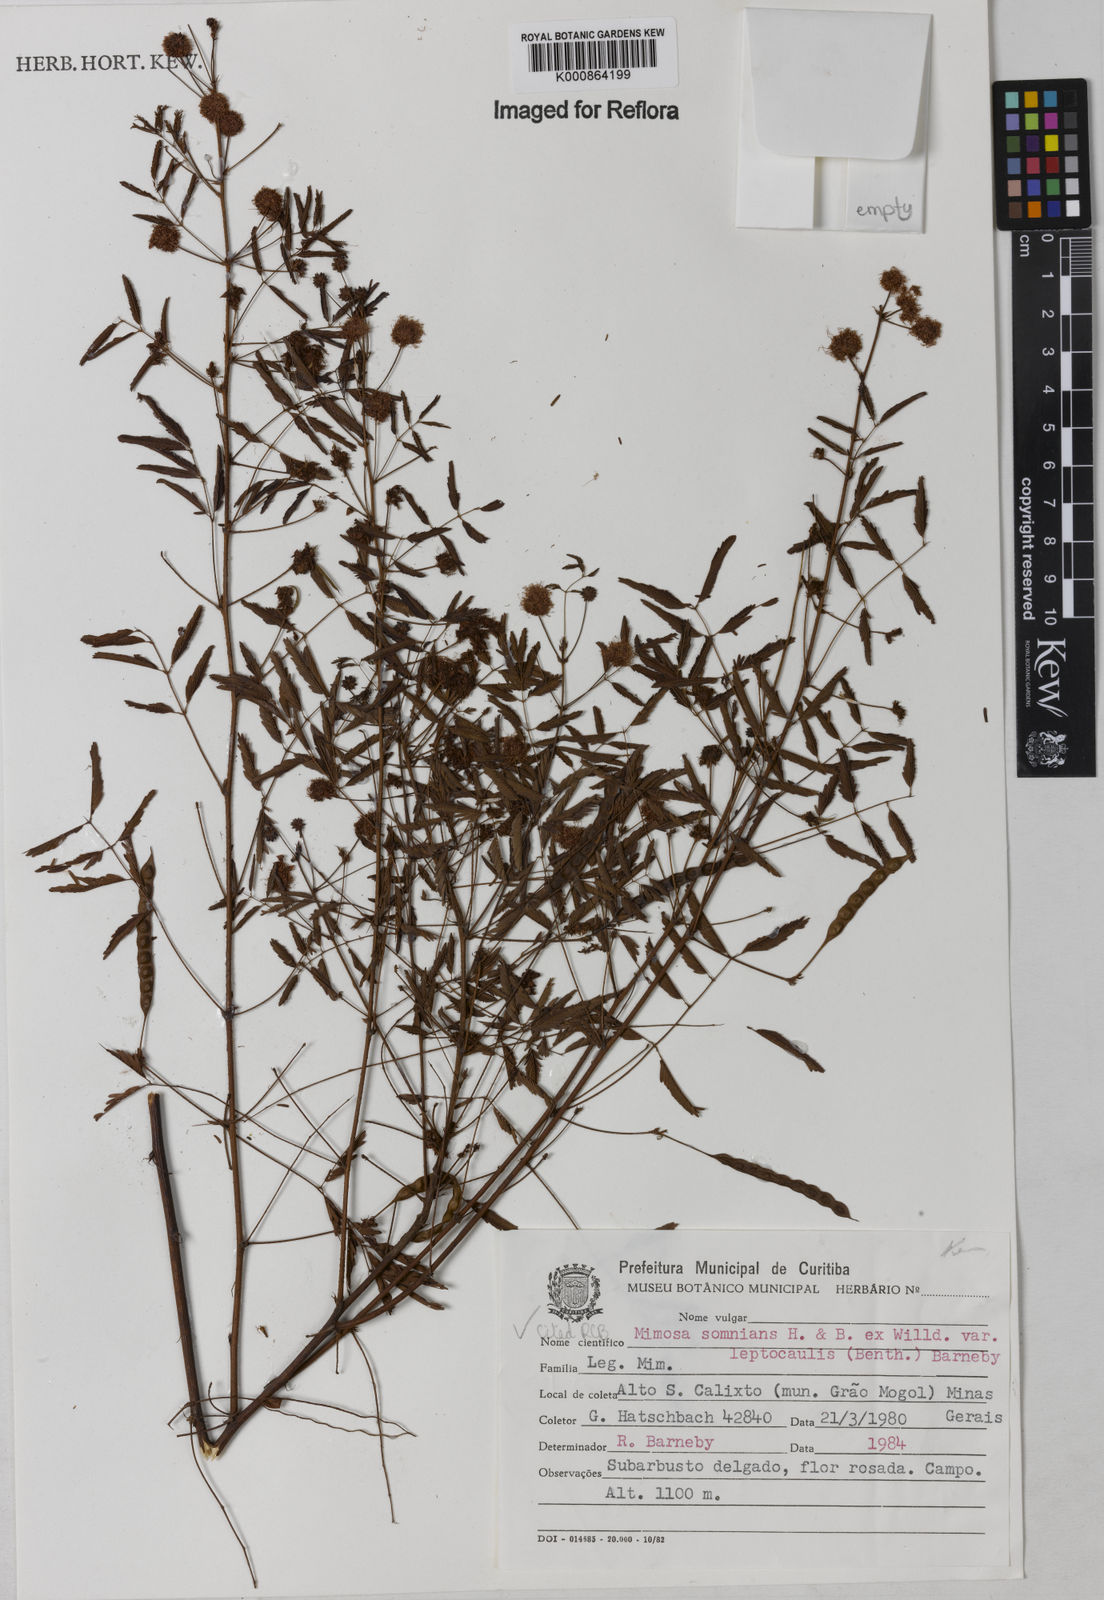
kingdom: Plantae
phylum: Tracheophyta
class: Magnoliopsida
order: Fabales
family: Fabaceae
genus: Mimosa
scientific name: Mimosa somnians
